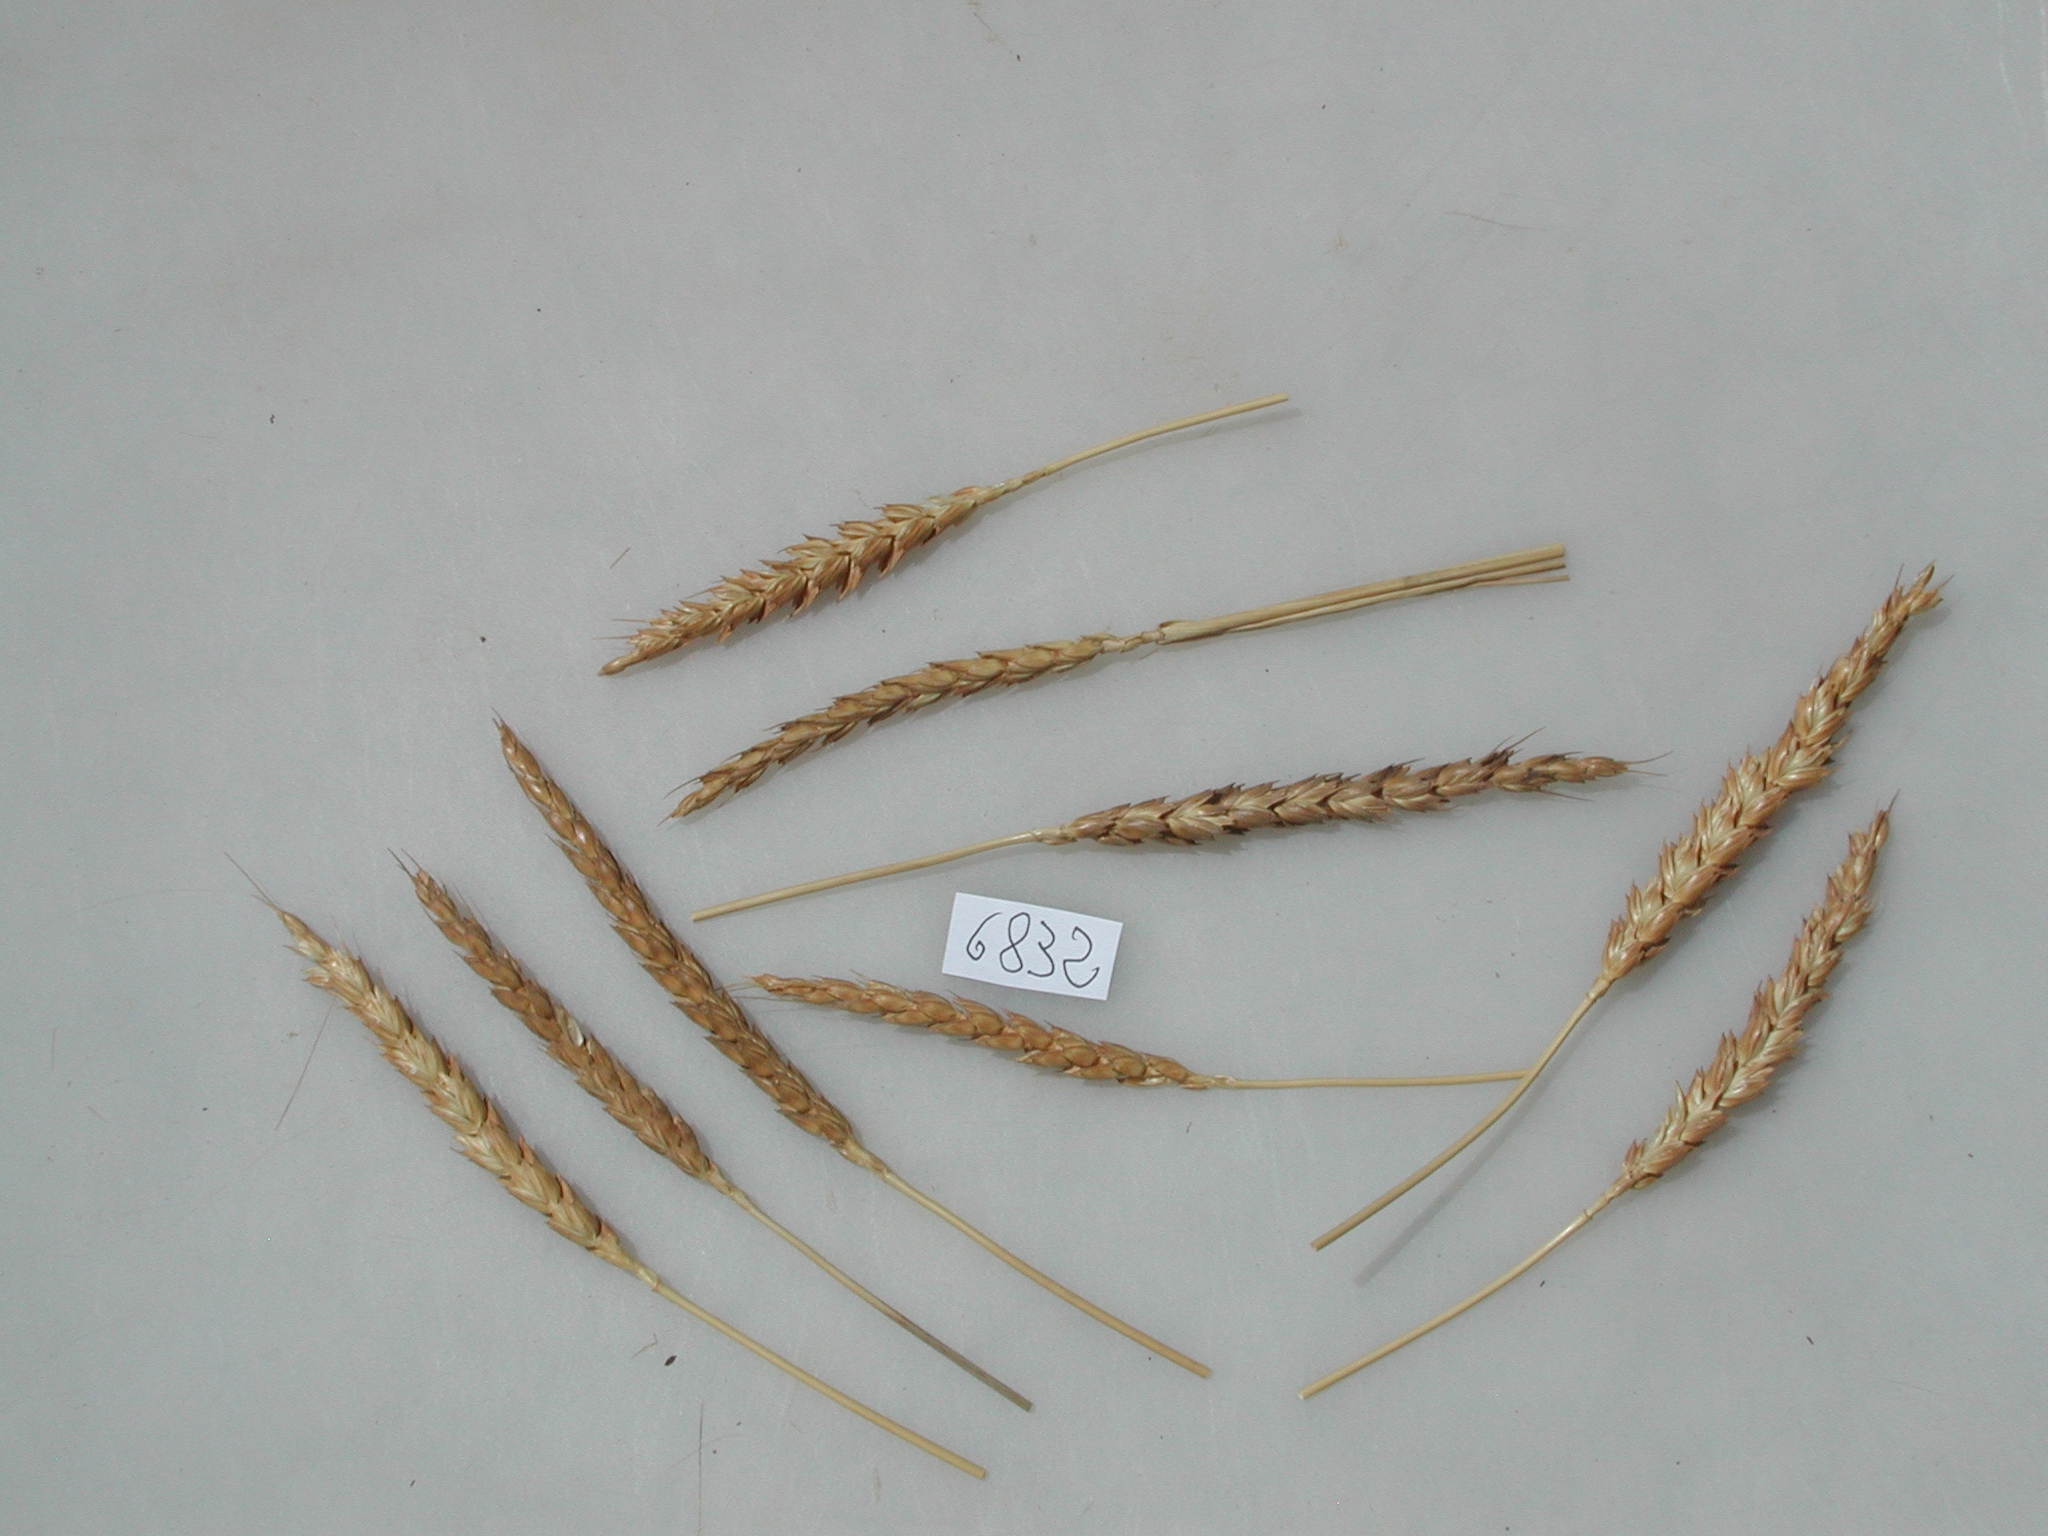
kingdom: Plantae
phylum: Tracheophyta
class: Liliopsida
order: Poales
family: Poaceae
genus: Triticum
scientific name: Triticum aestivum
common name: Wheat
